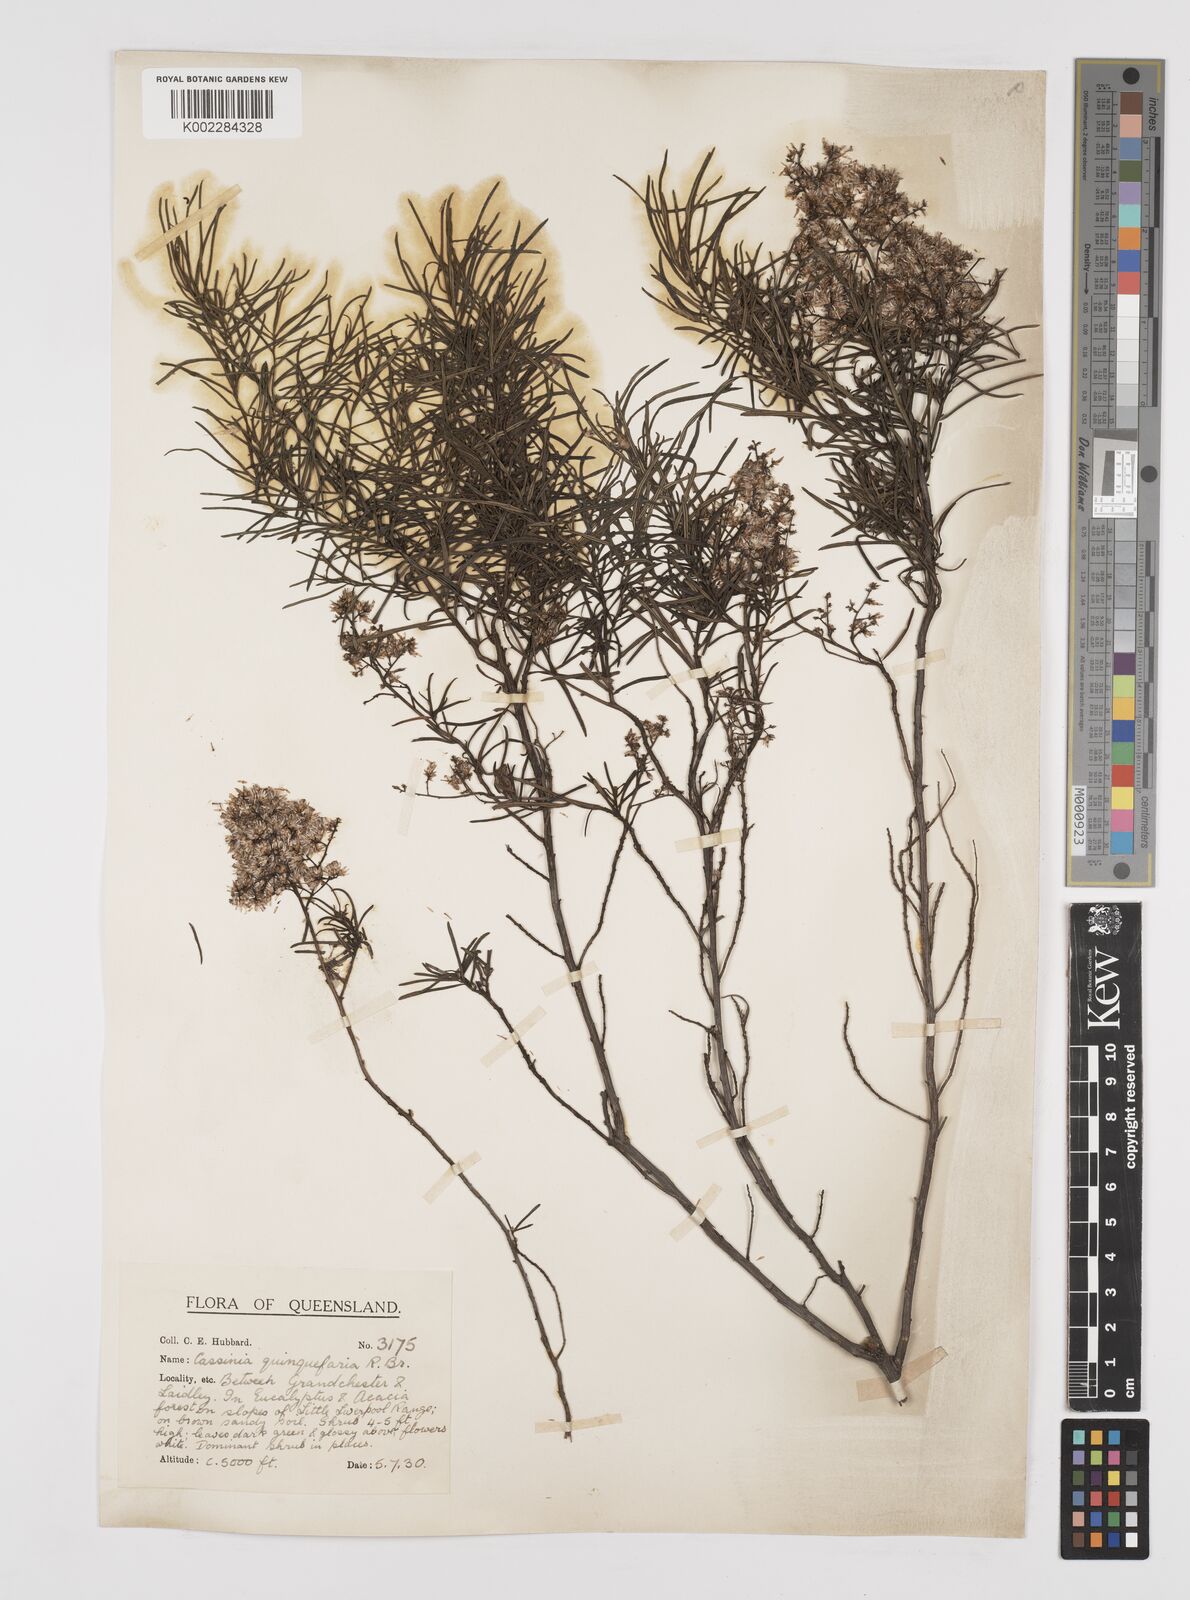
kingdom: Plantae
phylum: Tracheophyta
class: Magnoliopsida
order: Asterales
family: Asteraceae
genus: Cassinia
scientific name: Cassinia quinquefaria
